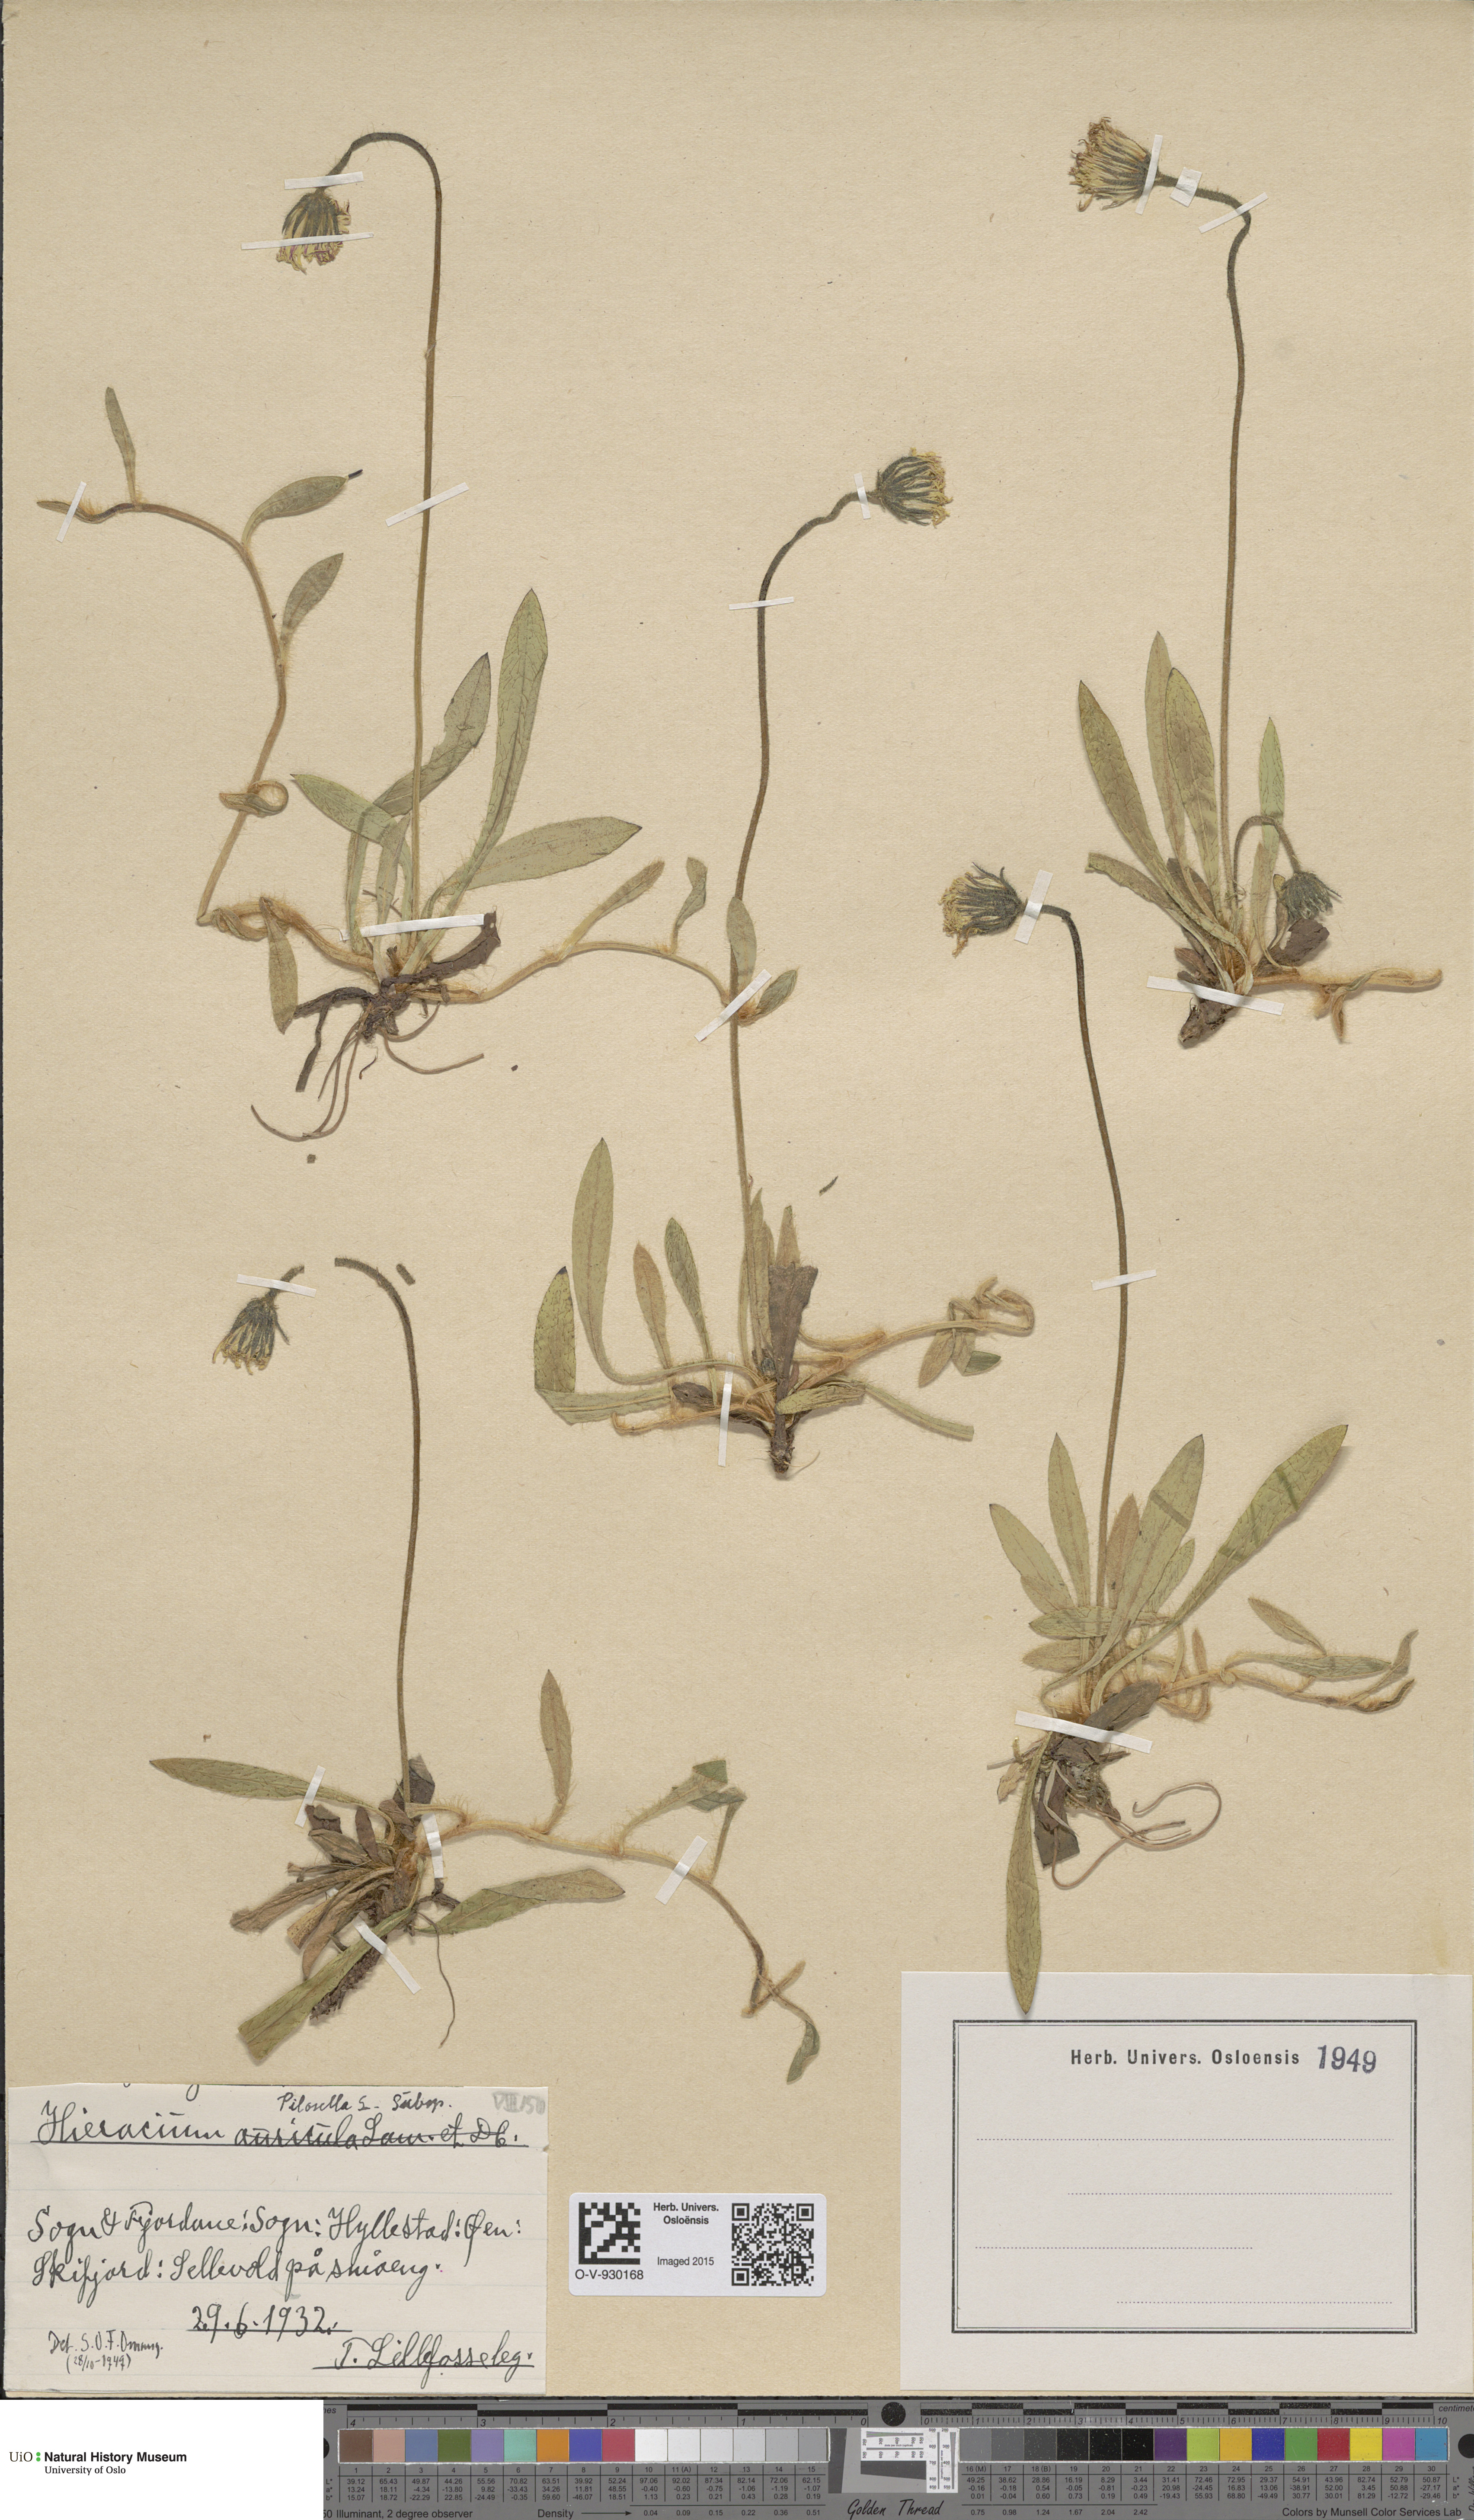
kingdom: Plantae
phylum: Tracheophyta
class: Magnoliopsida
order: Asterales
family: Asteraceae
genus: Pilosella
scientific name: Pilosella officinarum
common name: Mouse-ear hawkweed
